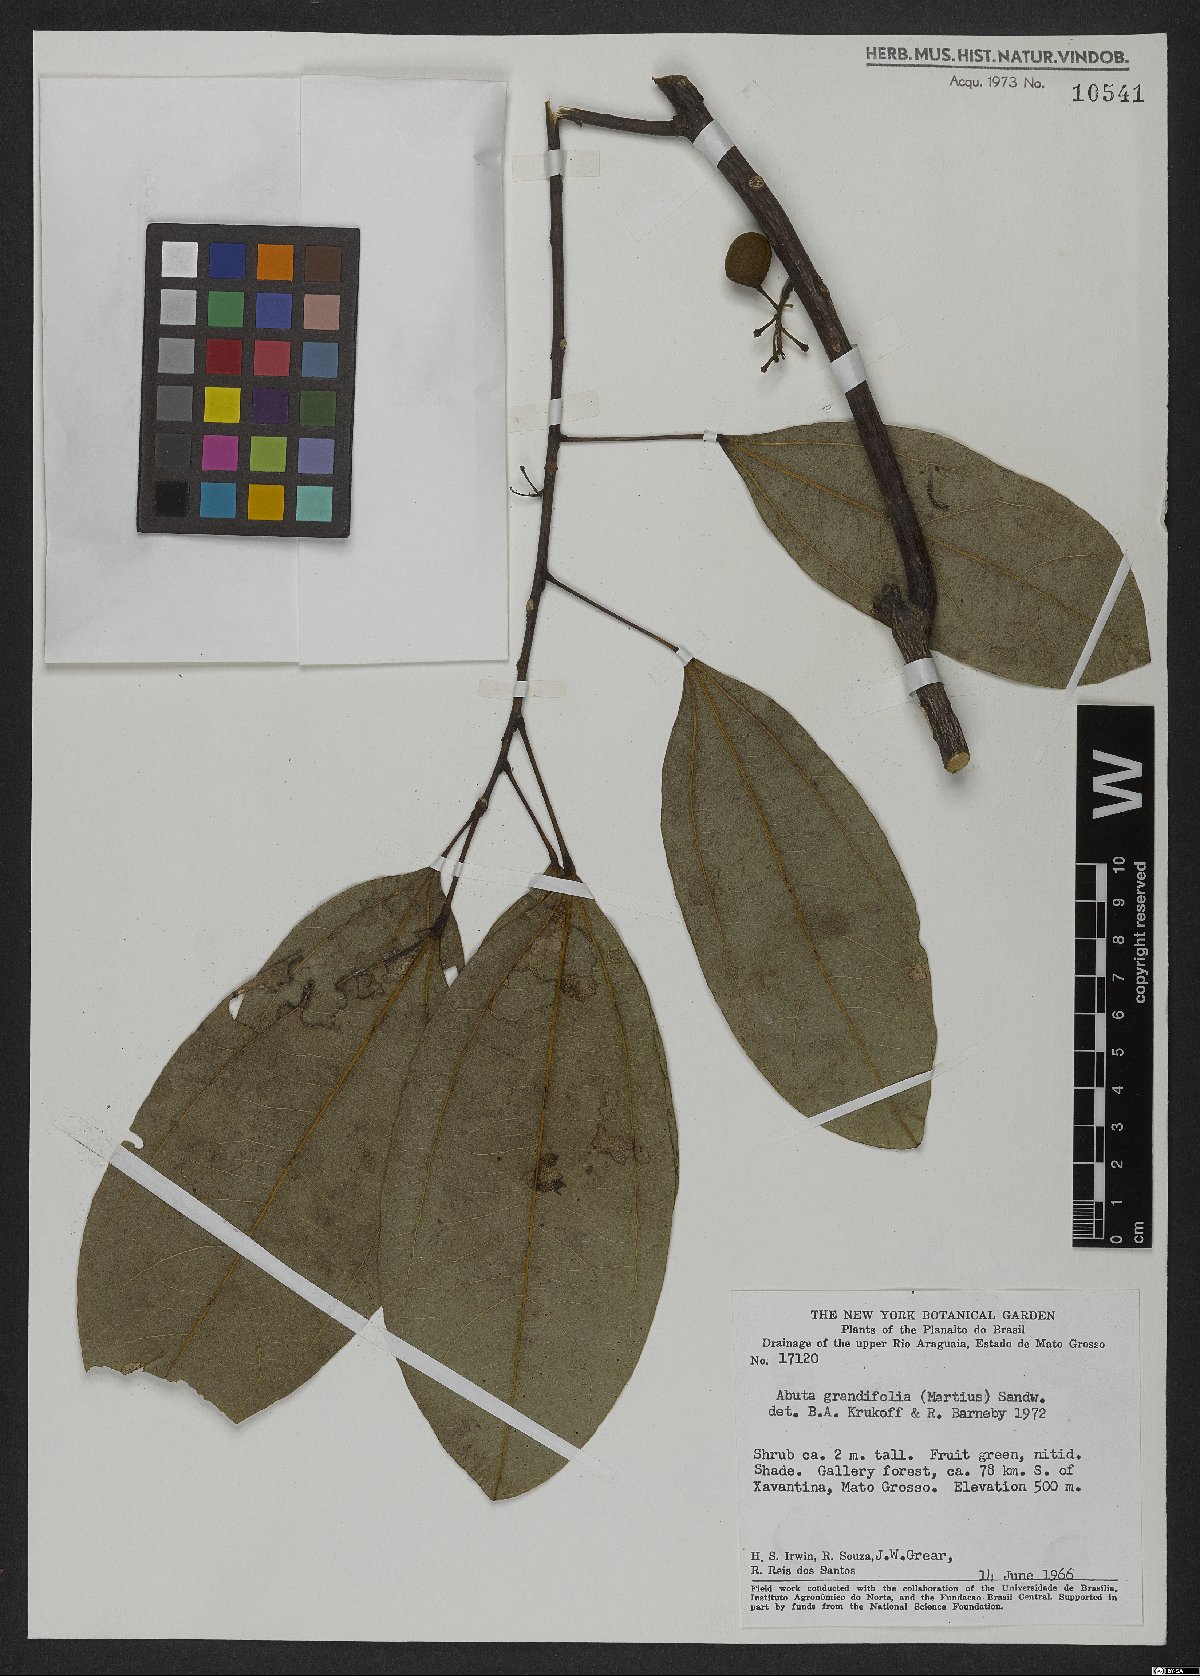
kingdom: Plantae
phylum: Tracheophyta
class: Magnoliopsida
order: Ranunculales
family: Menispermaceae
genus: Abuta
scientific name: Abuta grandifolia
